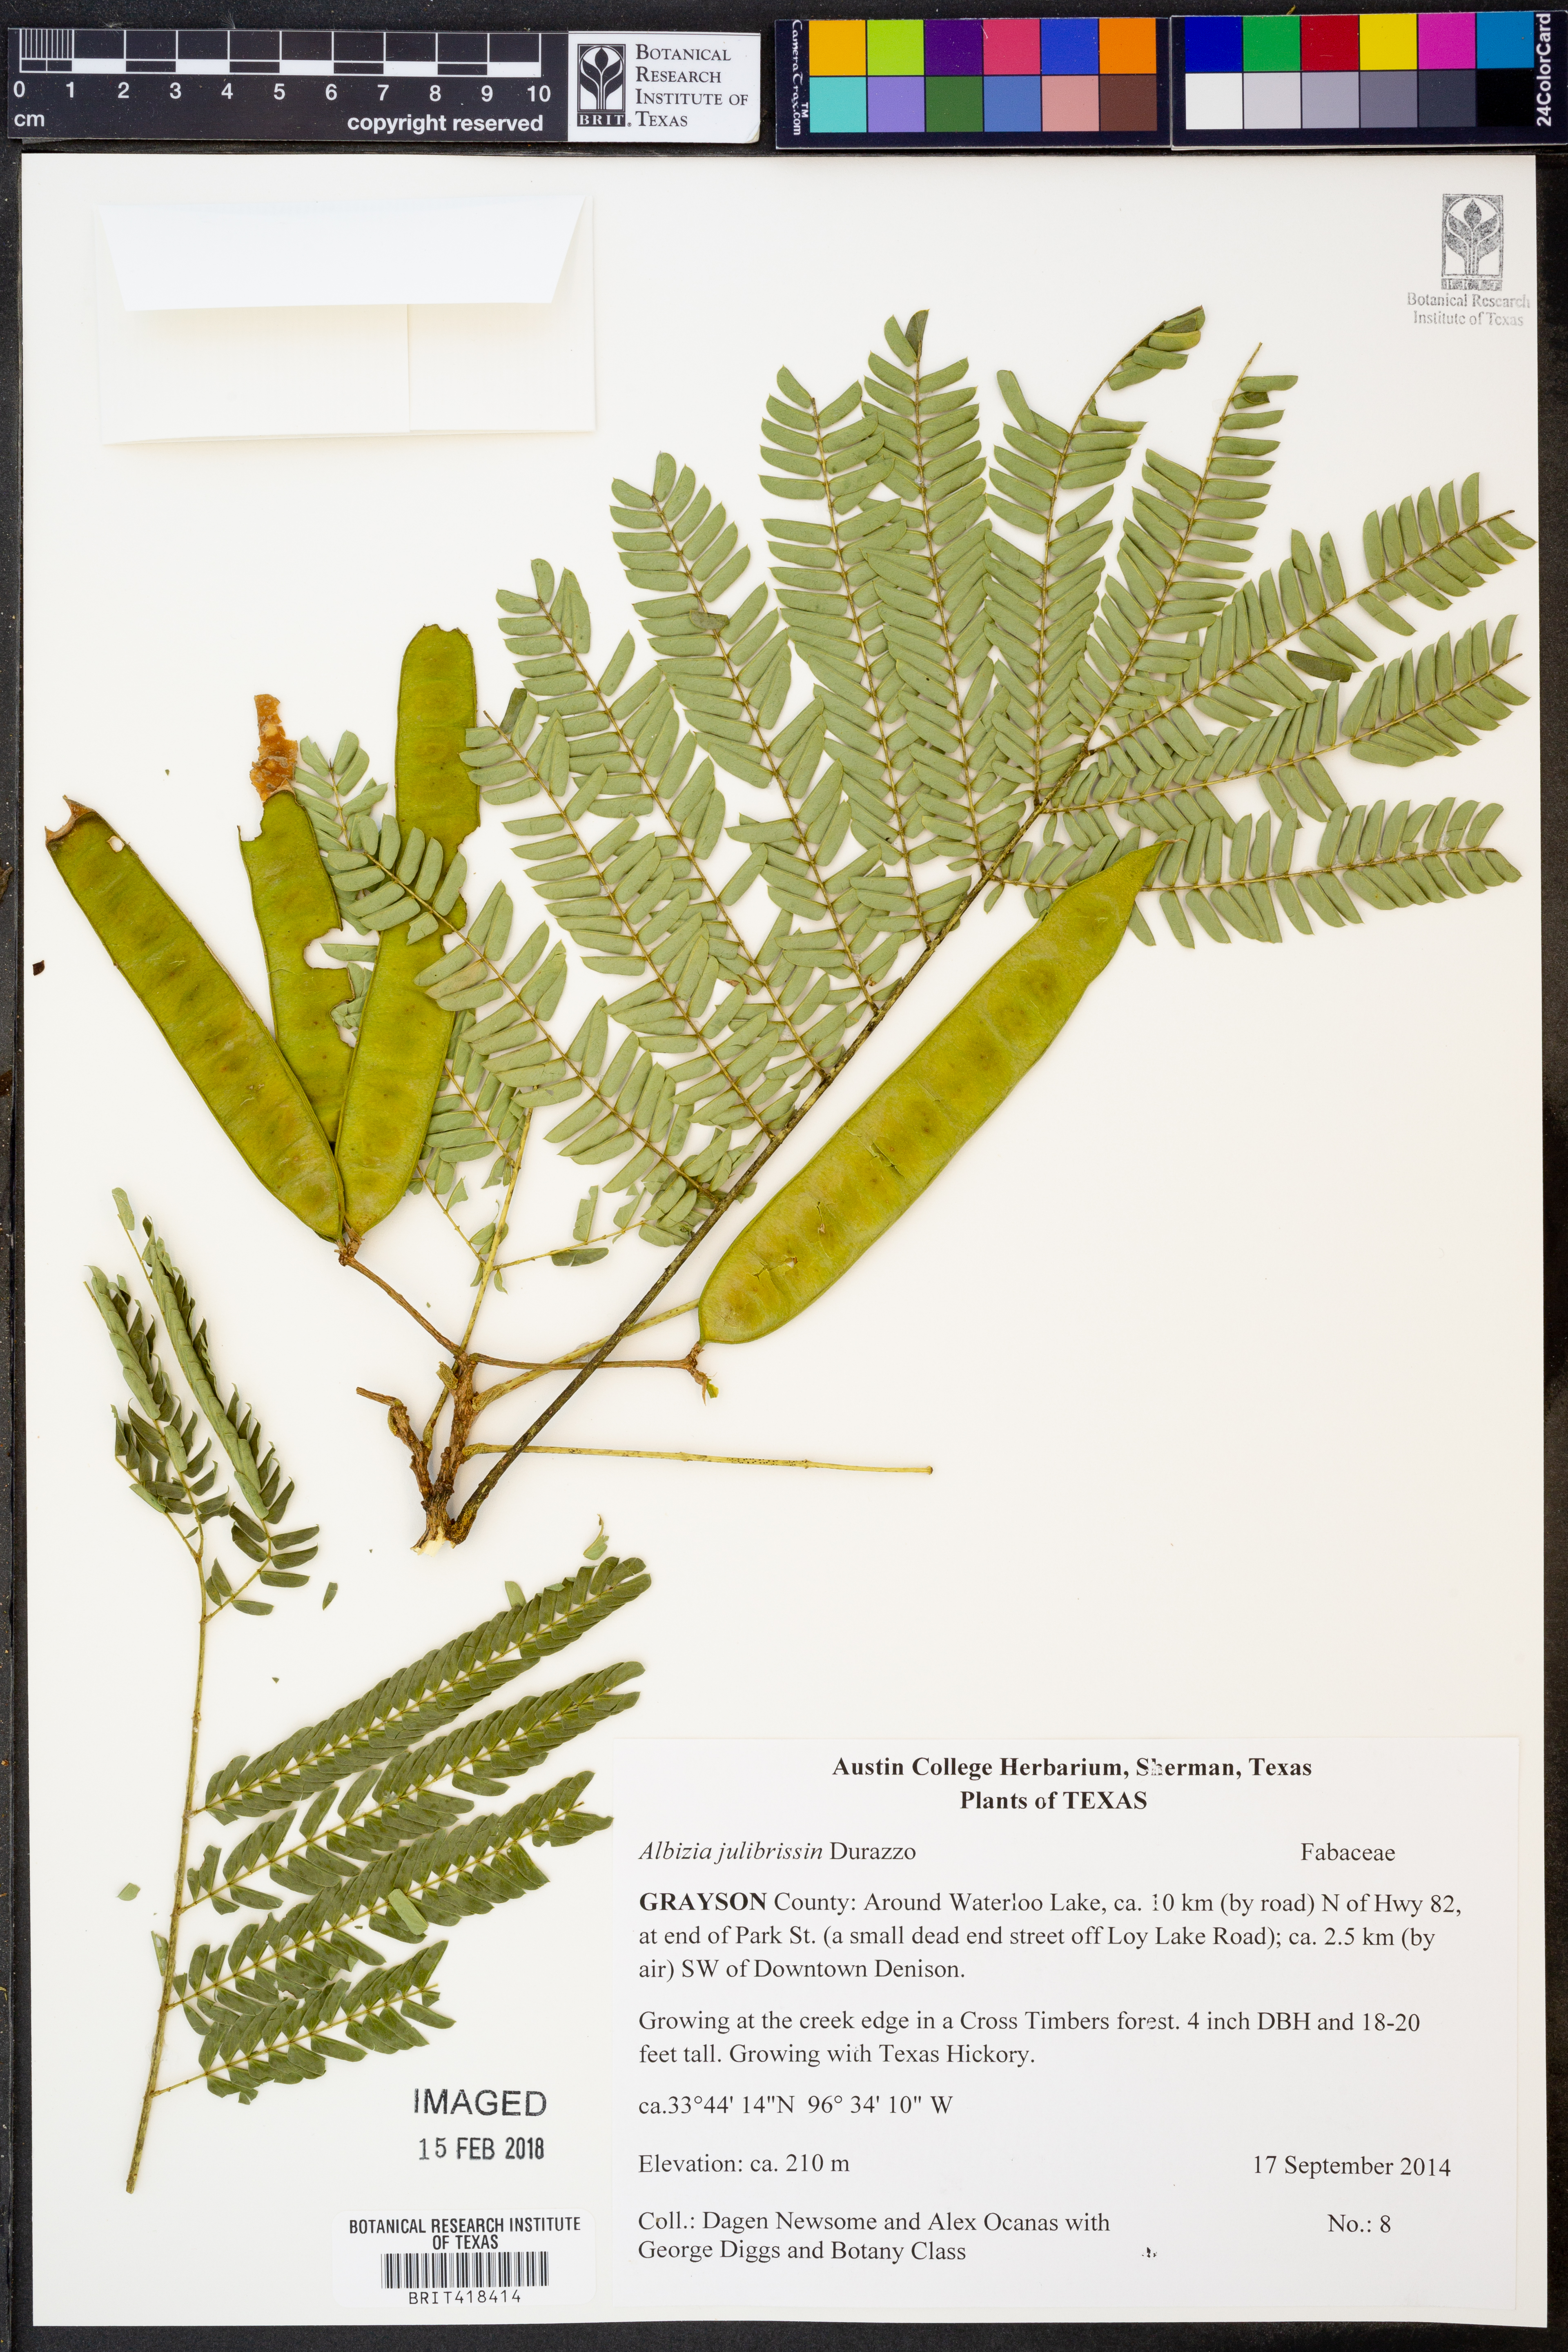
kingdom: Plantae
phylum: Tracheophyta
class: Magnoliopsida
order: Fabales
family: Fabaceae
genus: Albizia
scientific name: Albizia julibrissin
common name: Silktree
